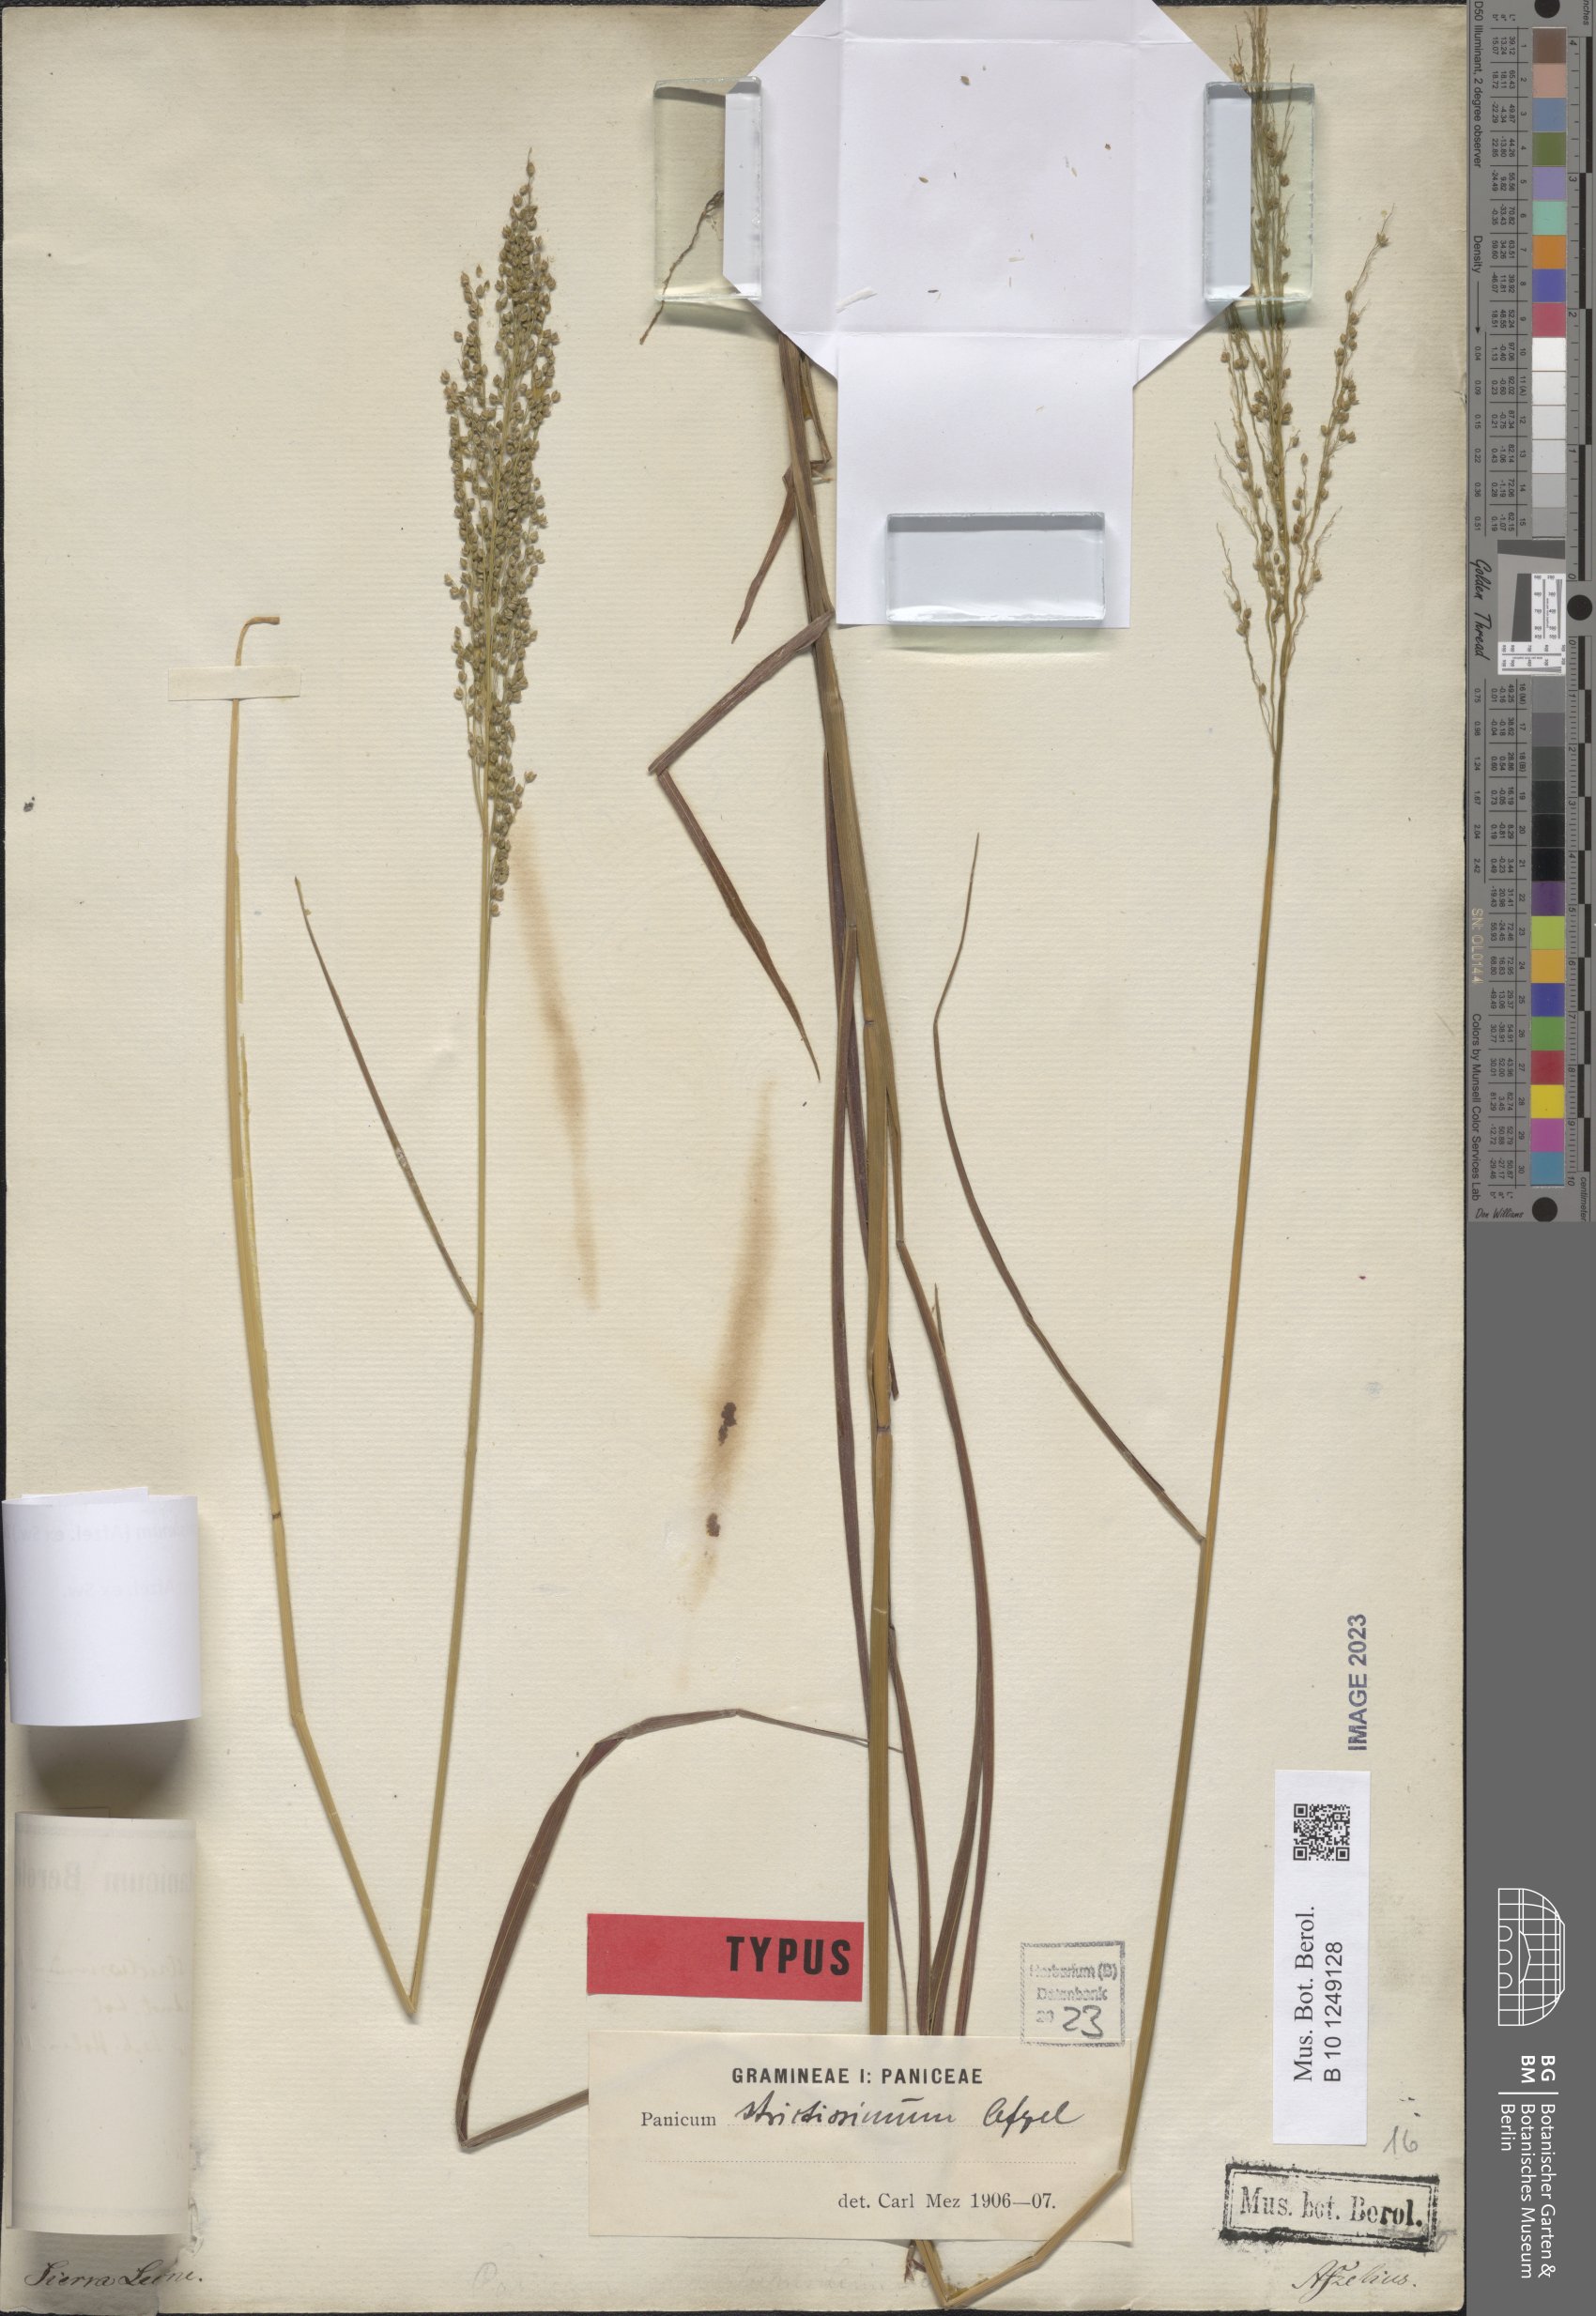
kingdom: Plantae
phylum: Tracheophyta
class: Liliopsida
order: Poales
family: Poaceae
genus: Trichanthecium
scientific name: Trichanthecium strictissimum
